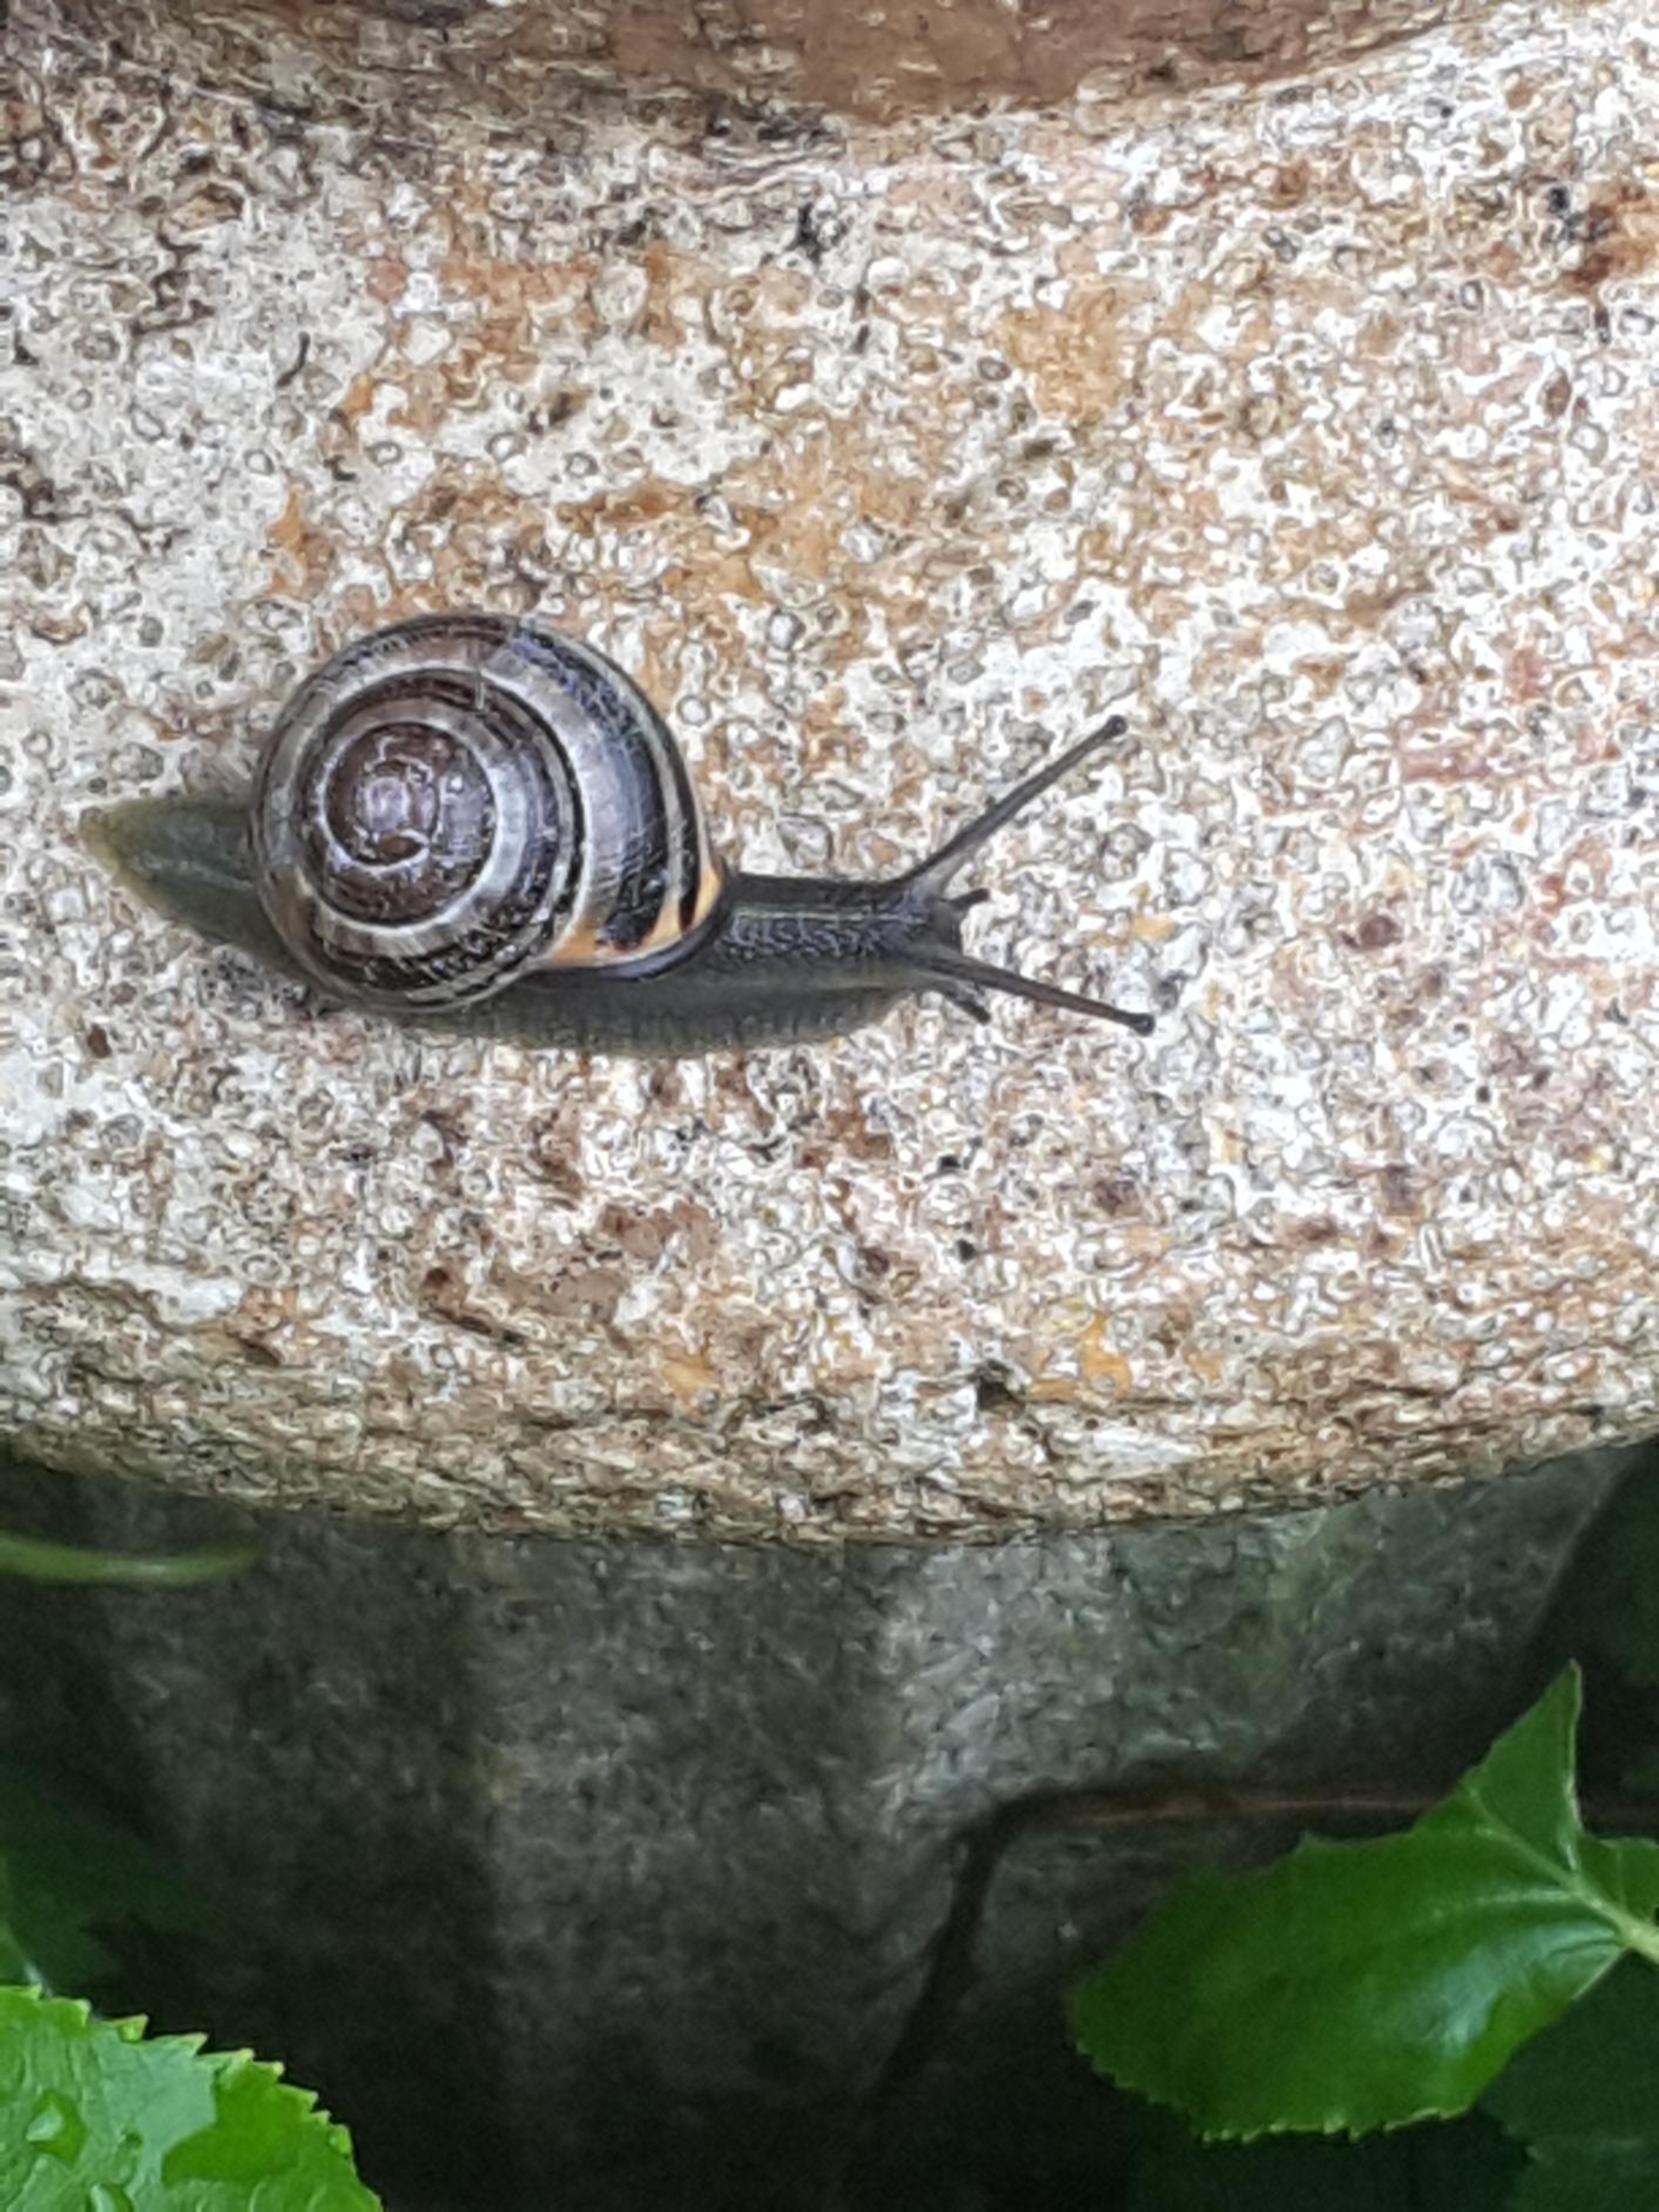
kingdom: Animalia
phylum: Mollusca
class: Gastropoda
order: Stylommatophora
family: Helicidae
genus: Cepaea
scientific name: Cepaea nemoralis
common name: Lundsnegl
